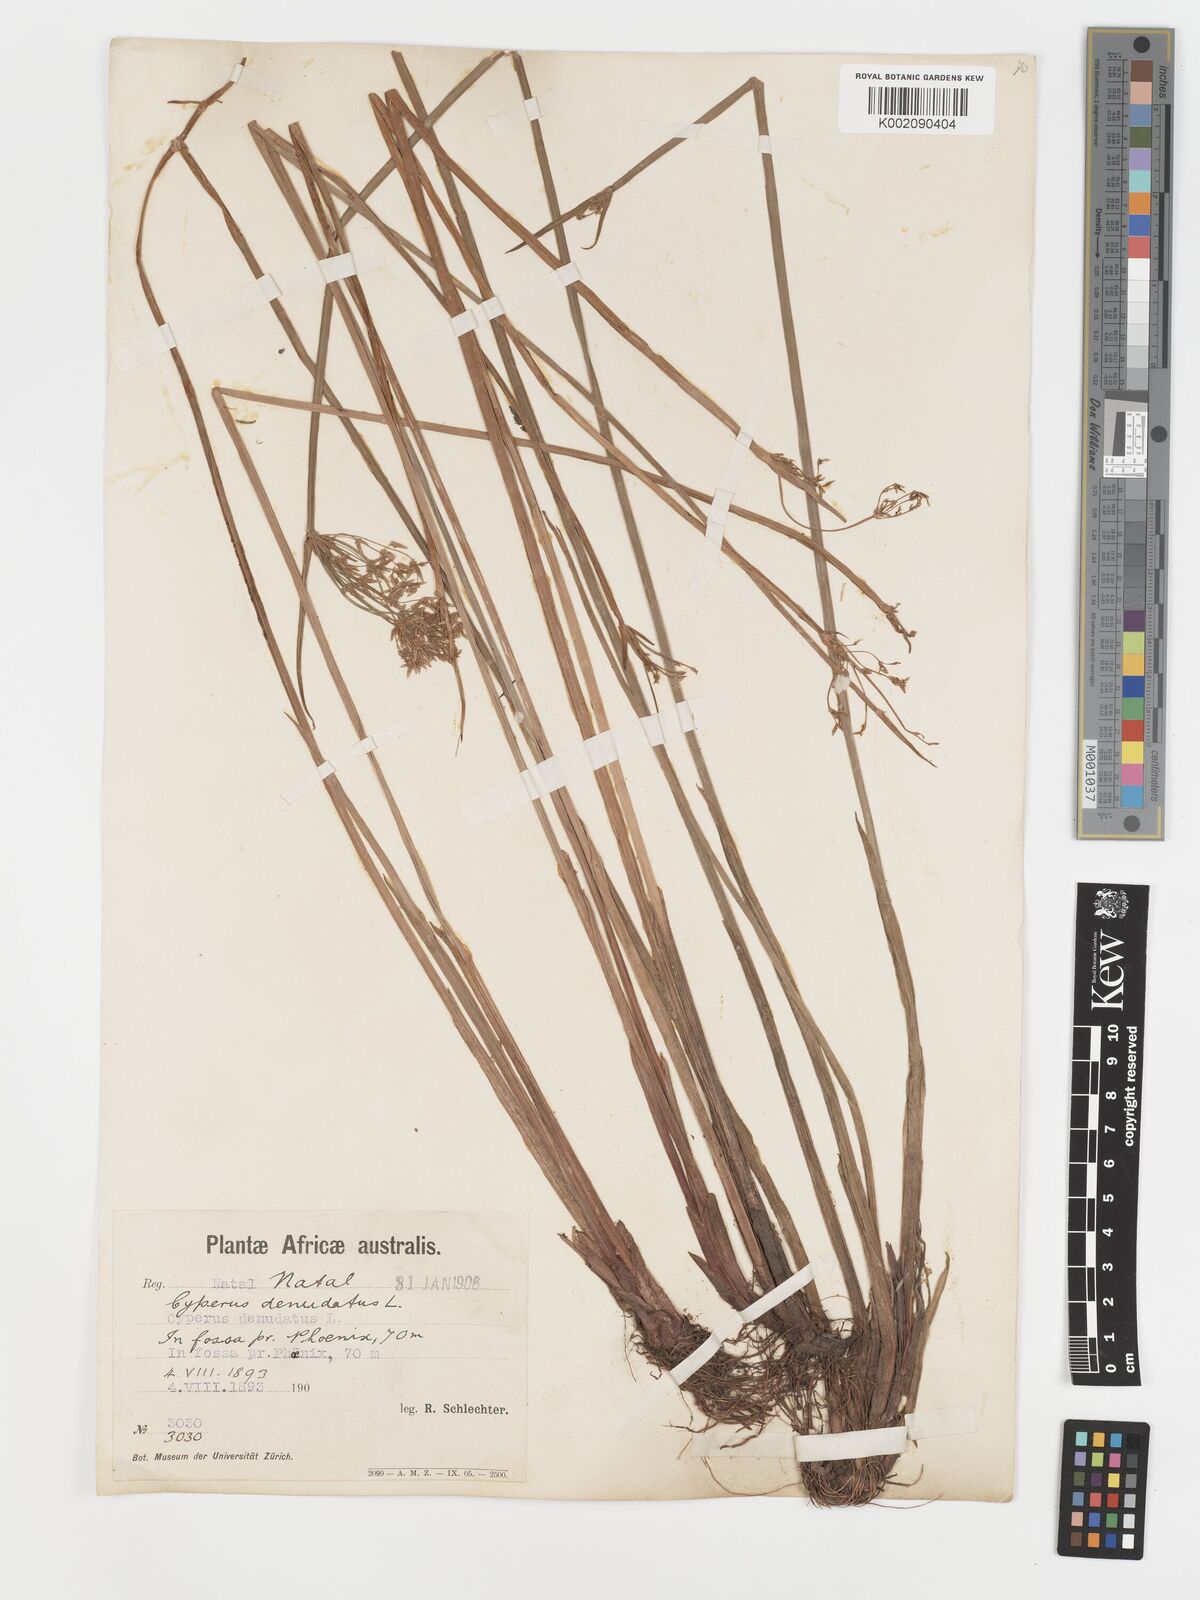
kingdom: Plantae
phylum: Tracheophyta
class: Liliopsida
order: Poales
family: Cyperaceae
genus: Cyperus
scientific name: Cyperus platycaulis
